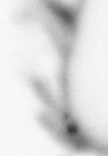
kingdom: Animalia
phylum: Annelida
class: Polychaeta
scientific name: Polychaeta
